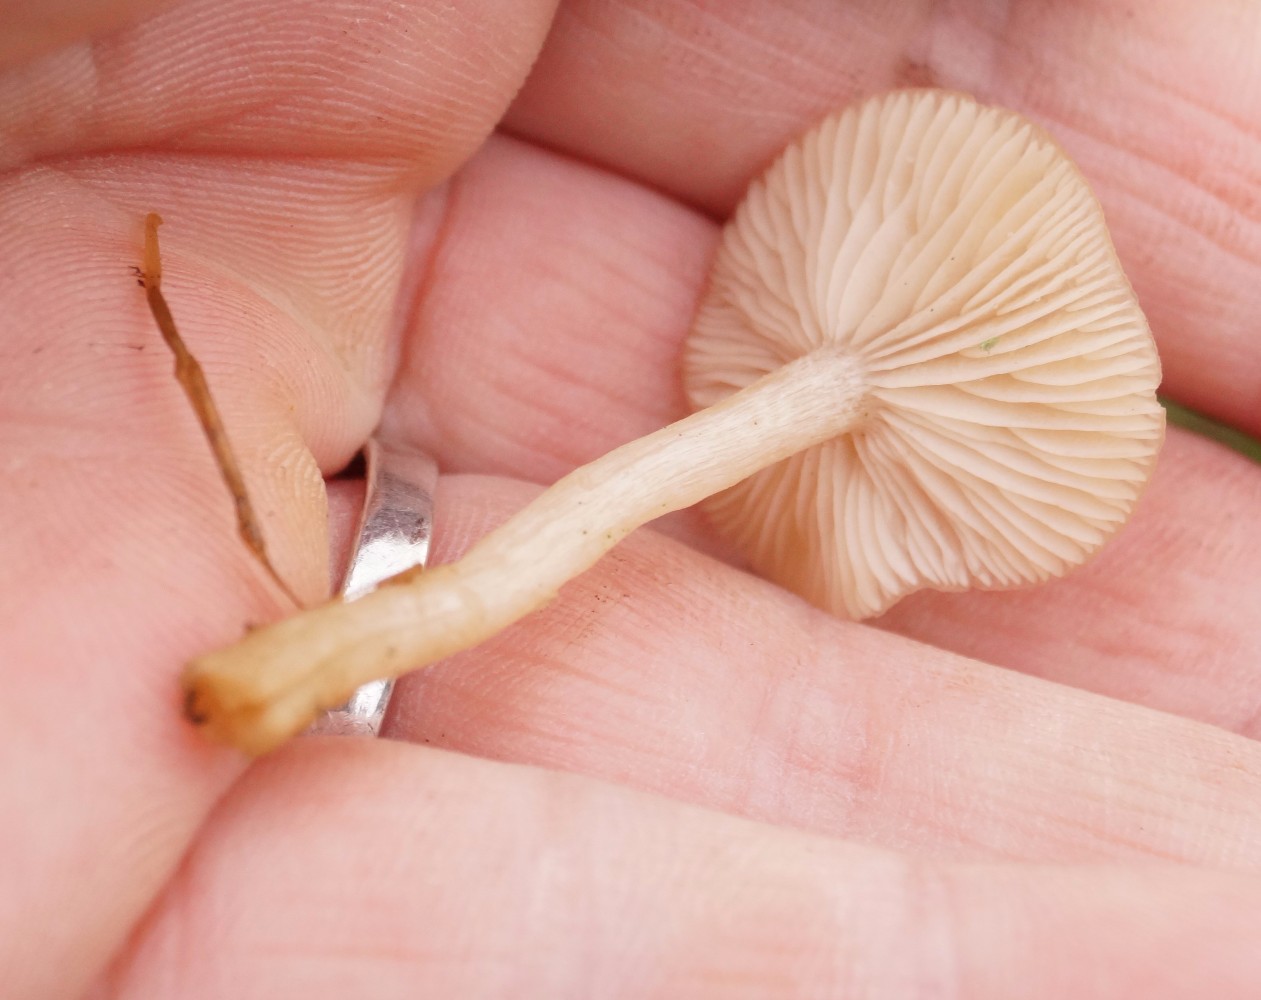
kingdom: Fungi
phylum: Basidiomycota
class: Agaricomycetes
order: Agaricales
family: Tricholomataceae
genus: Clitocybe
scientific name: Clitocybe fragrans
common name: vellugtende tragthat
